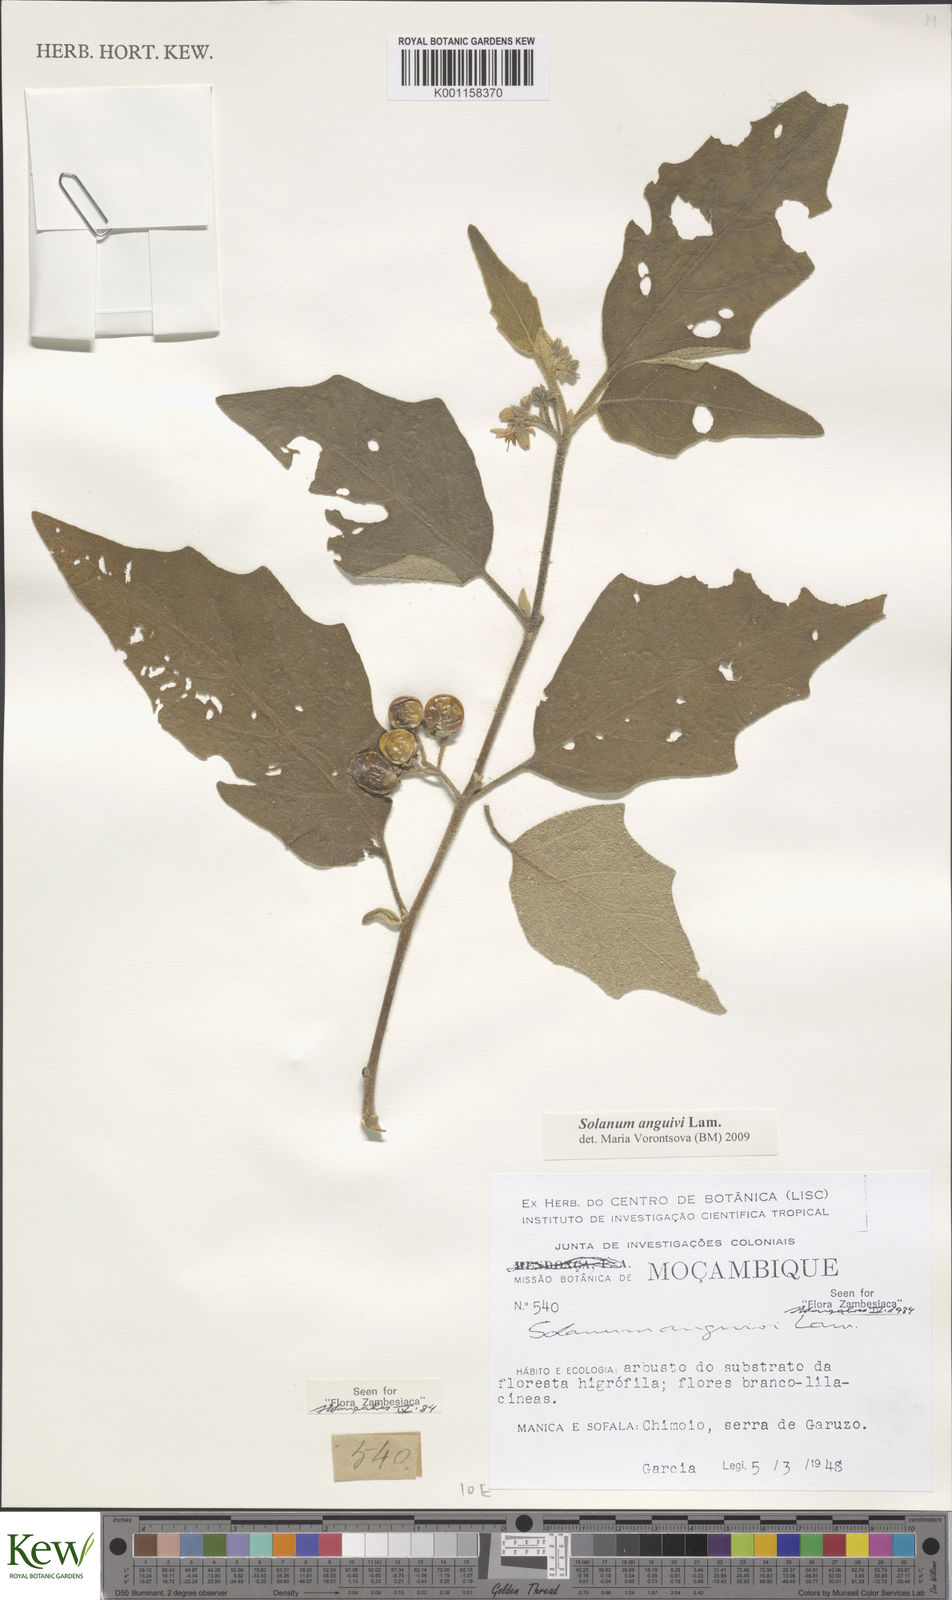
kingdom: Plantae
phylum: Tracheophyta
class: Magnoliopsida
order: Solanales
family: Solanaceae
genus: Solanum
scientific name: Solanum anguivi
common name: Forest bitterberry
